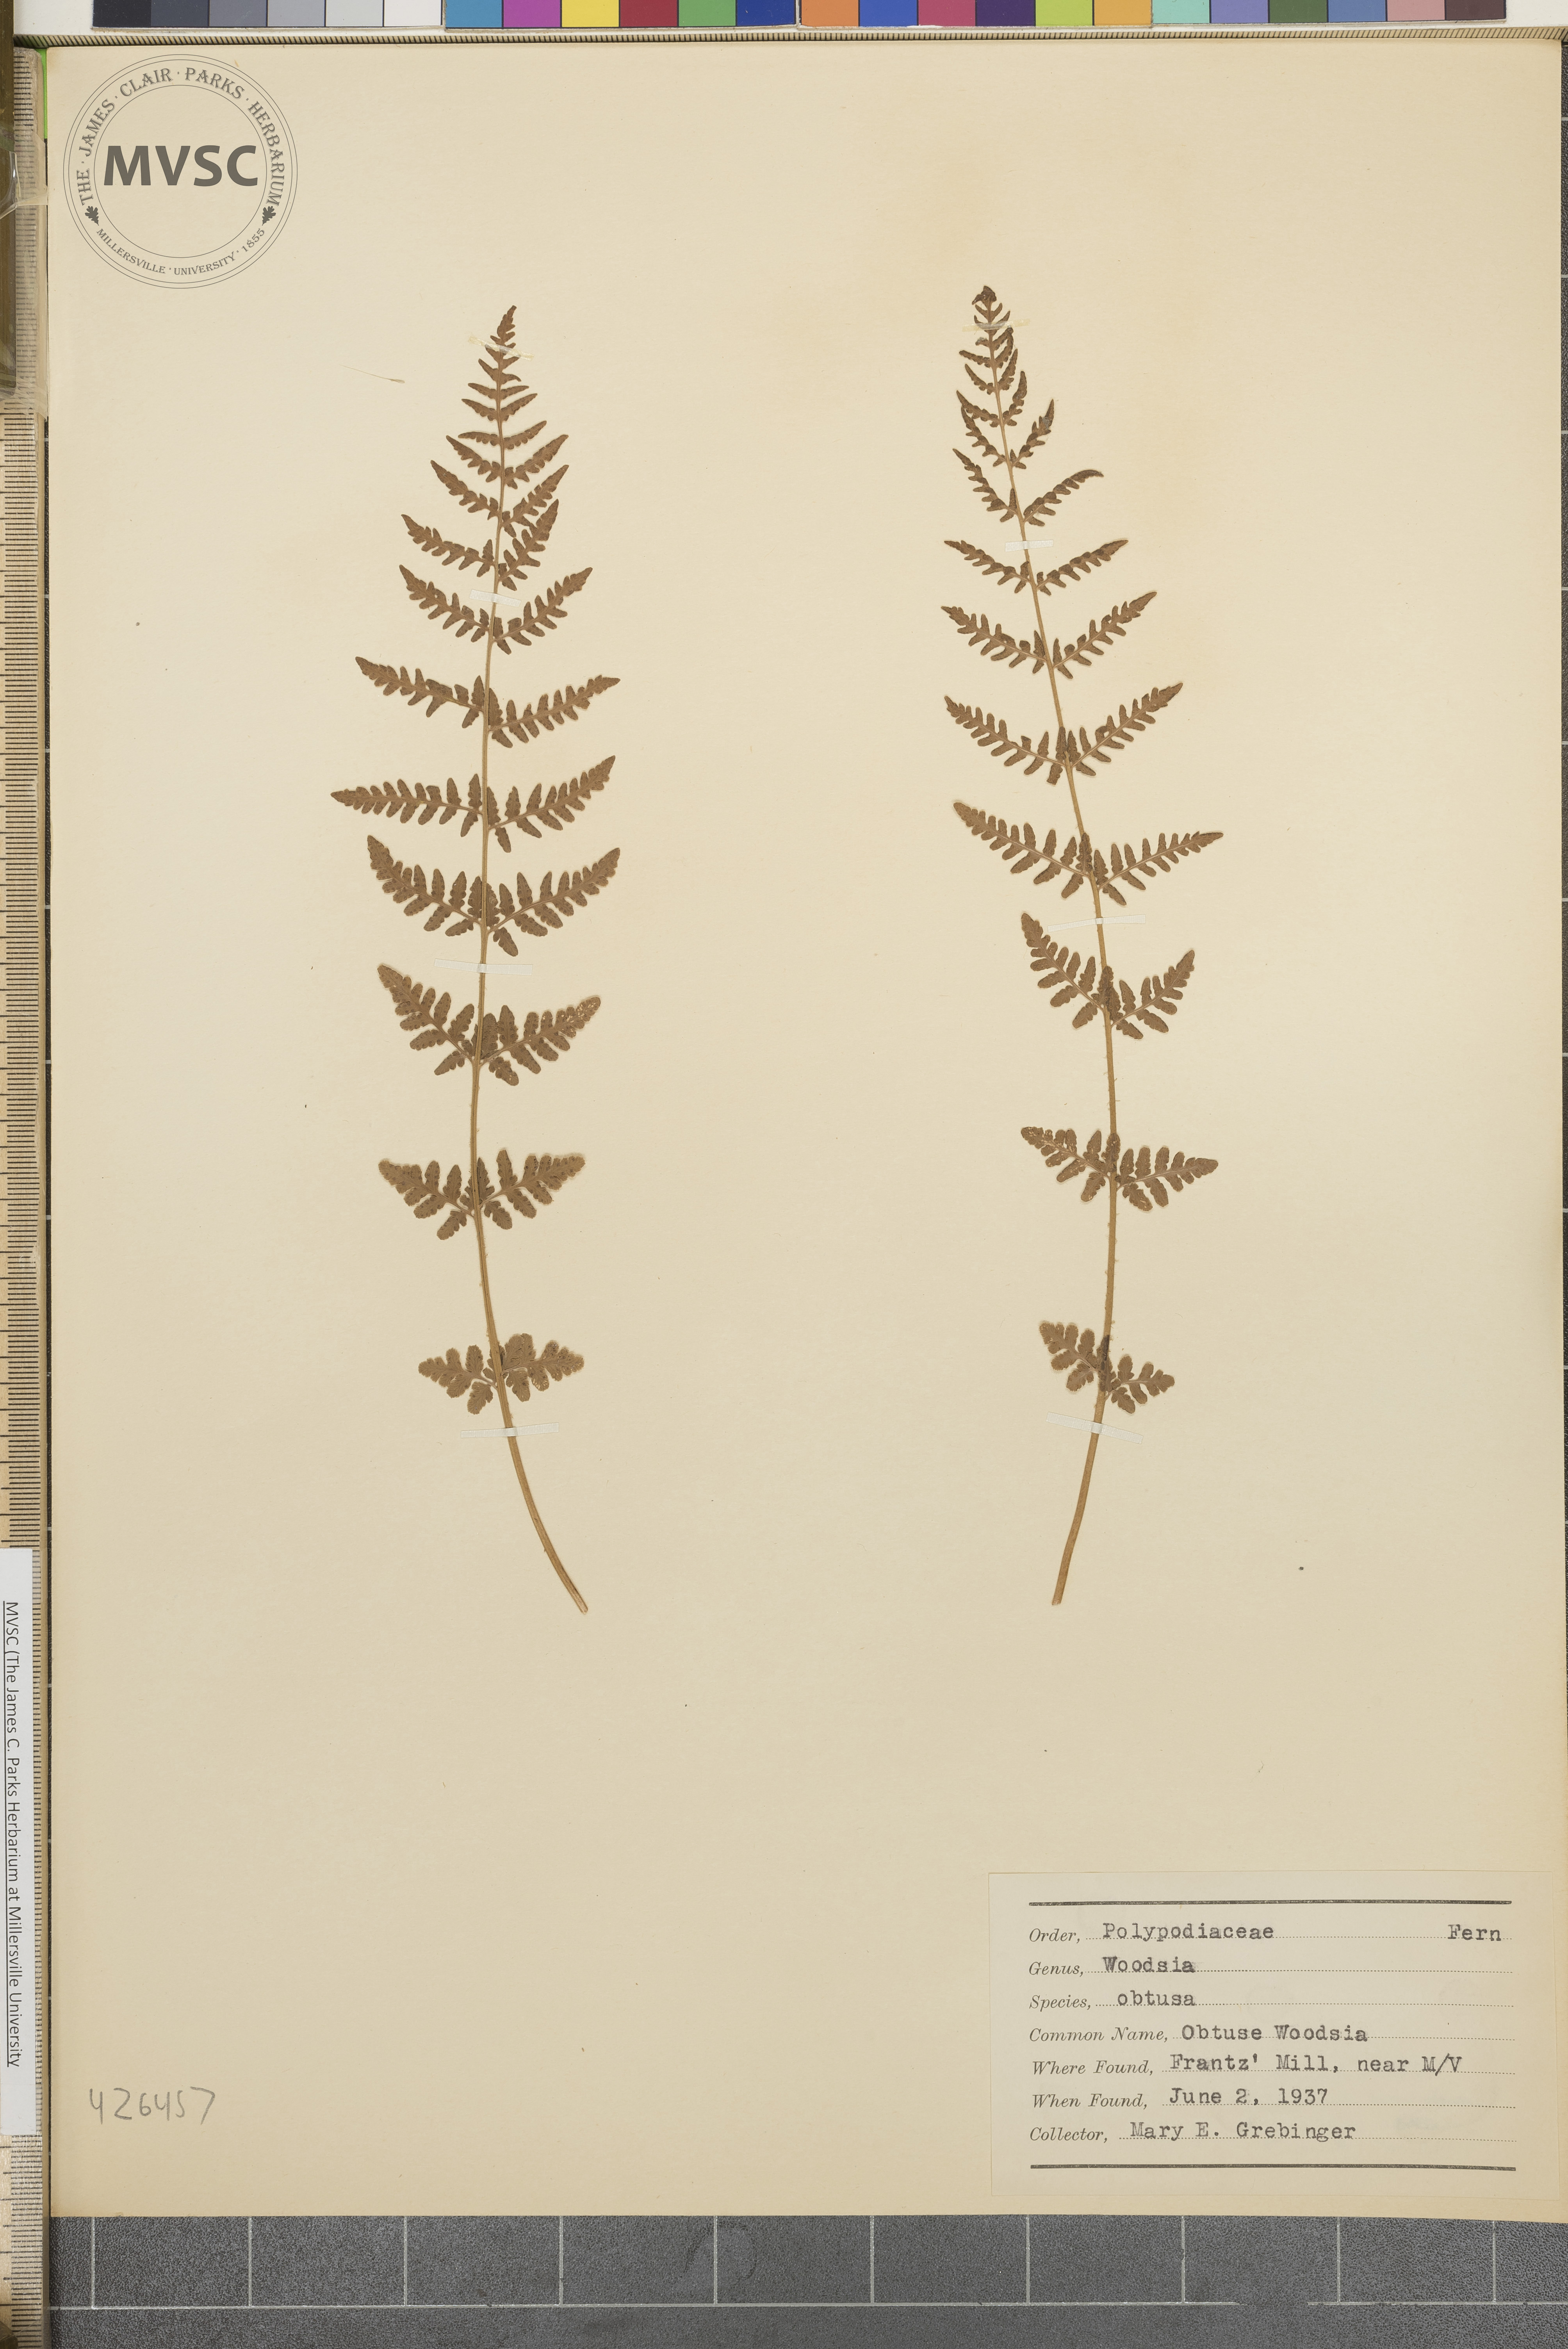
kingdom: Plantae
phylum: Tracheophyta
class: Polypodiopsida
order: Polypodiales
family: Woodsiaceae
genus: Physematium
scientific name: Physematium obtusum
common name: Obtuse Woodsia
